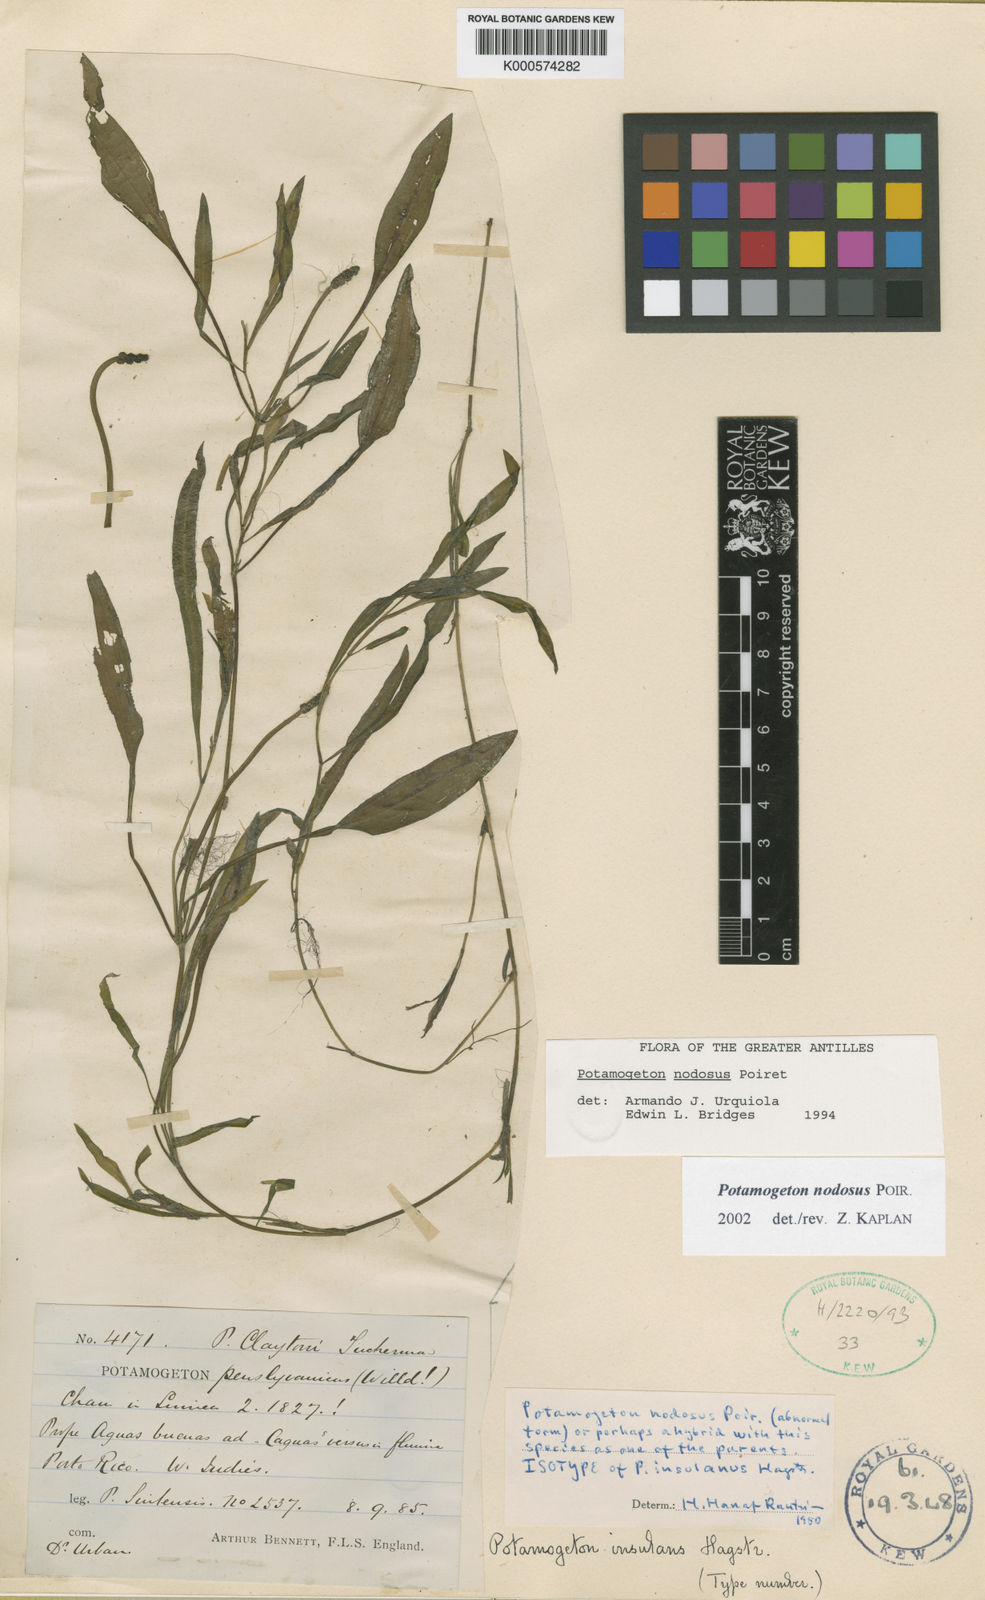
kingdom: Plantae
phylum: Tracheophyta
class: Liliopsida
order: Alismatales
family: Potamogetonaceae
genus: Potamogeton
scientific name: Potamogeton nodosus
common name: Loddon pondweed
